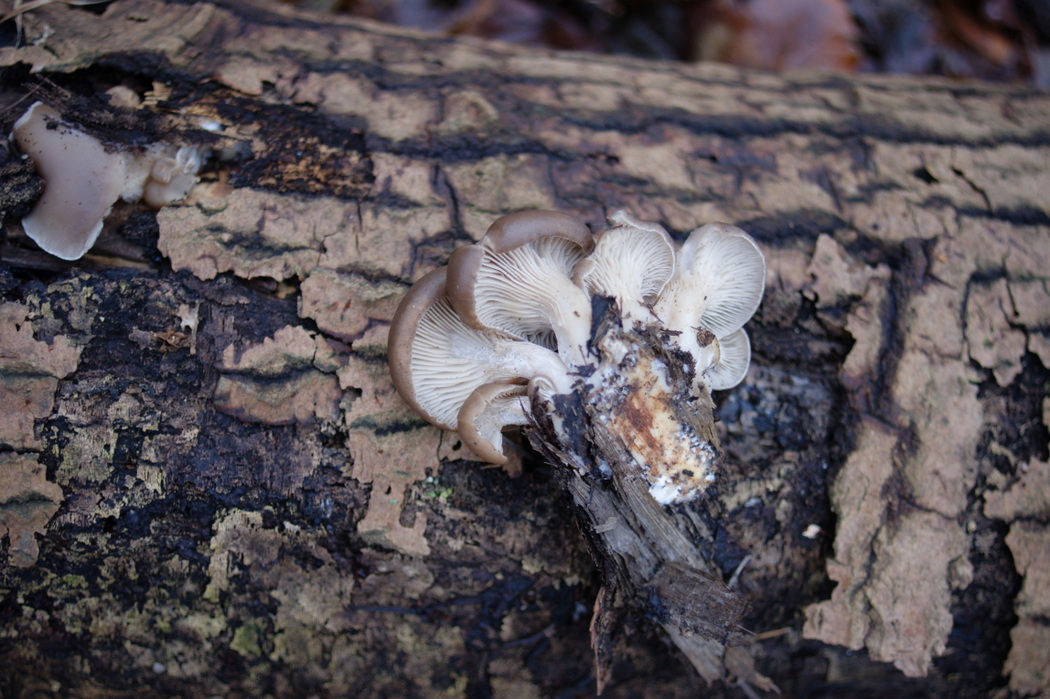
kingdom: Fungi
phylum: Basidiomycota
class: Agaricomycetes
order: Agaricales
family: Pleurotaceae
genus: Pleurotus
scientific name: Pleurotus ostreatus
